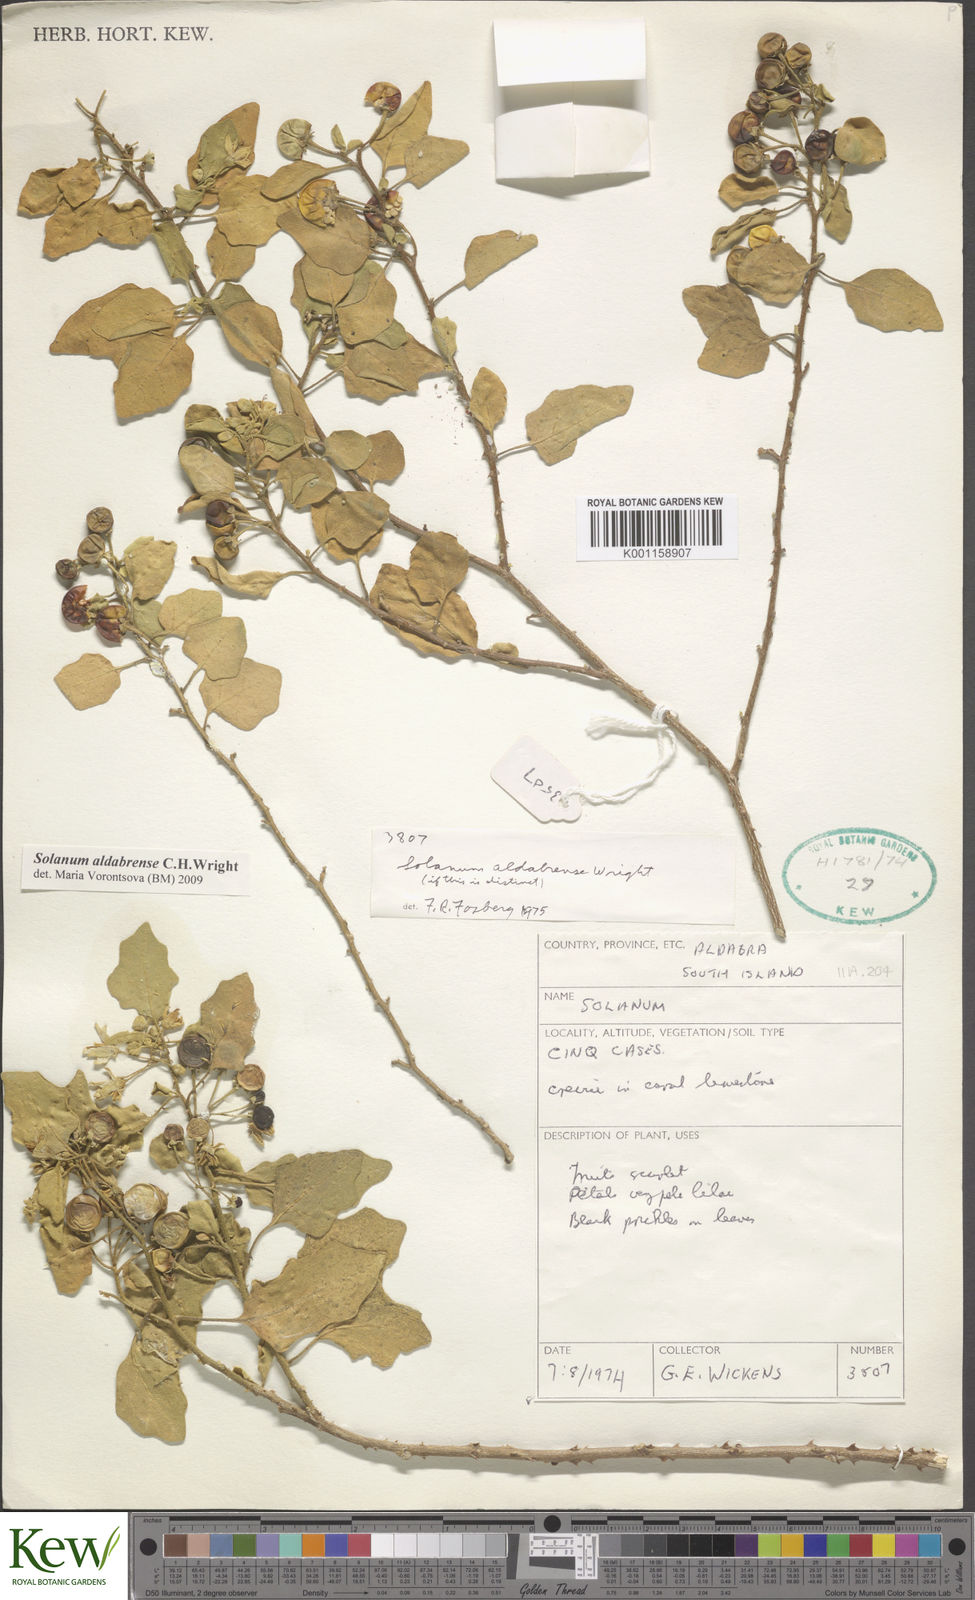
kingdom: Plantae
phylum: Tracheophyta
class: Magnoliopsida
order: Solanales
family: Solanaceae
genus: Solanum
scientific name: Solanum aldabrense
